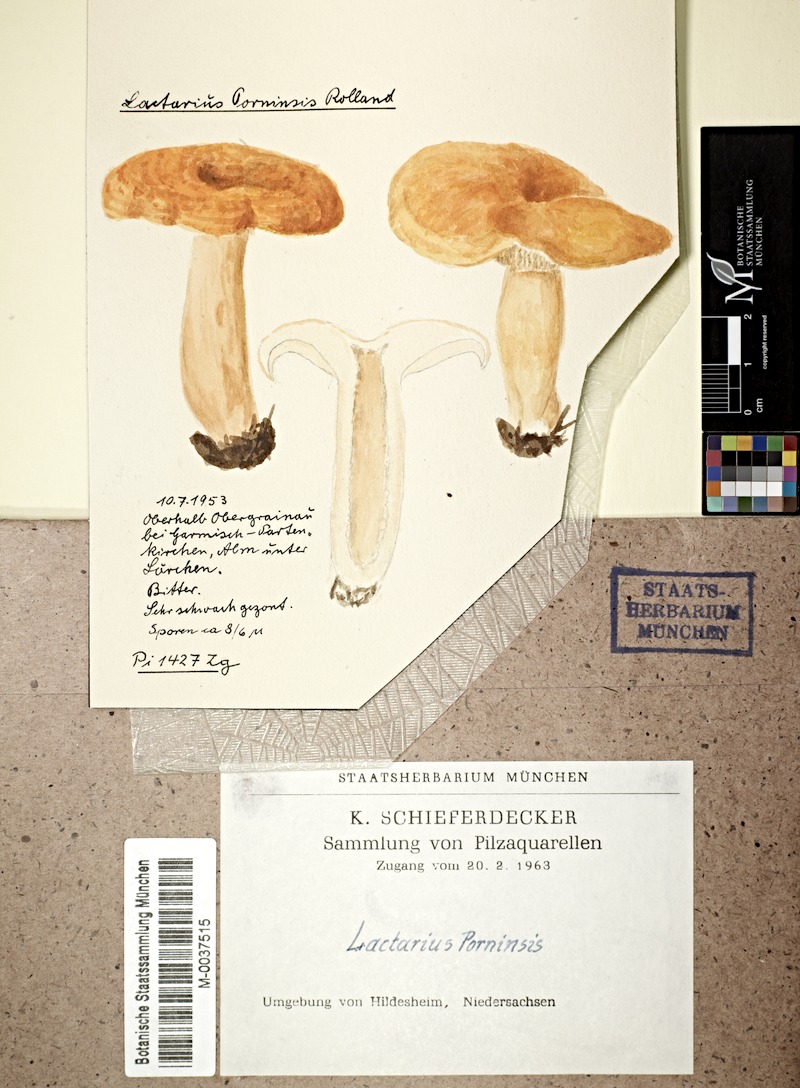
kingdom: Fungi
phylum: Basidiomycota
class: Agaricomycetes
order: Russulales
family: Russulaceae
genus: Lactarius
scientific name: Lactarius porninsis
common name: Larch milkcap
